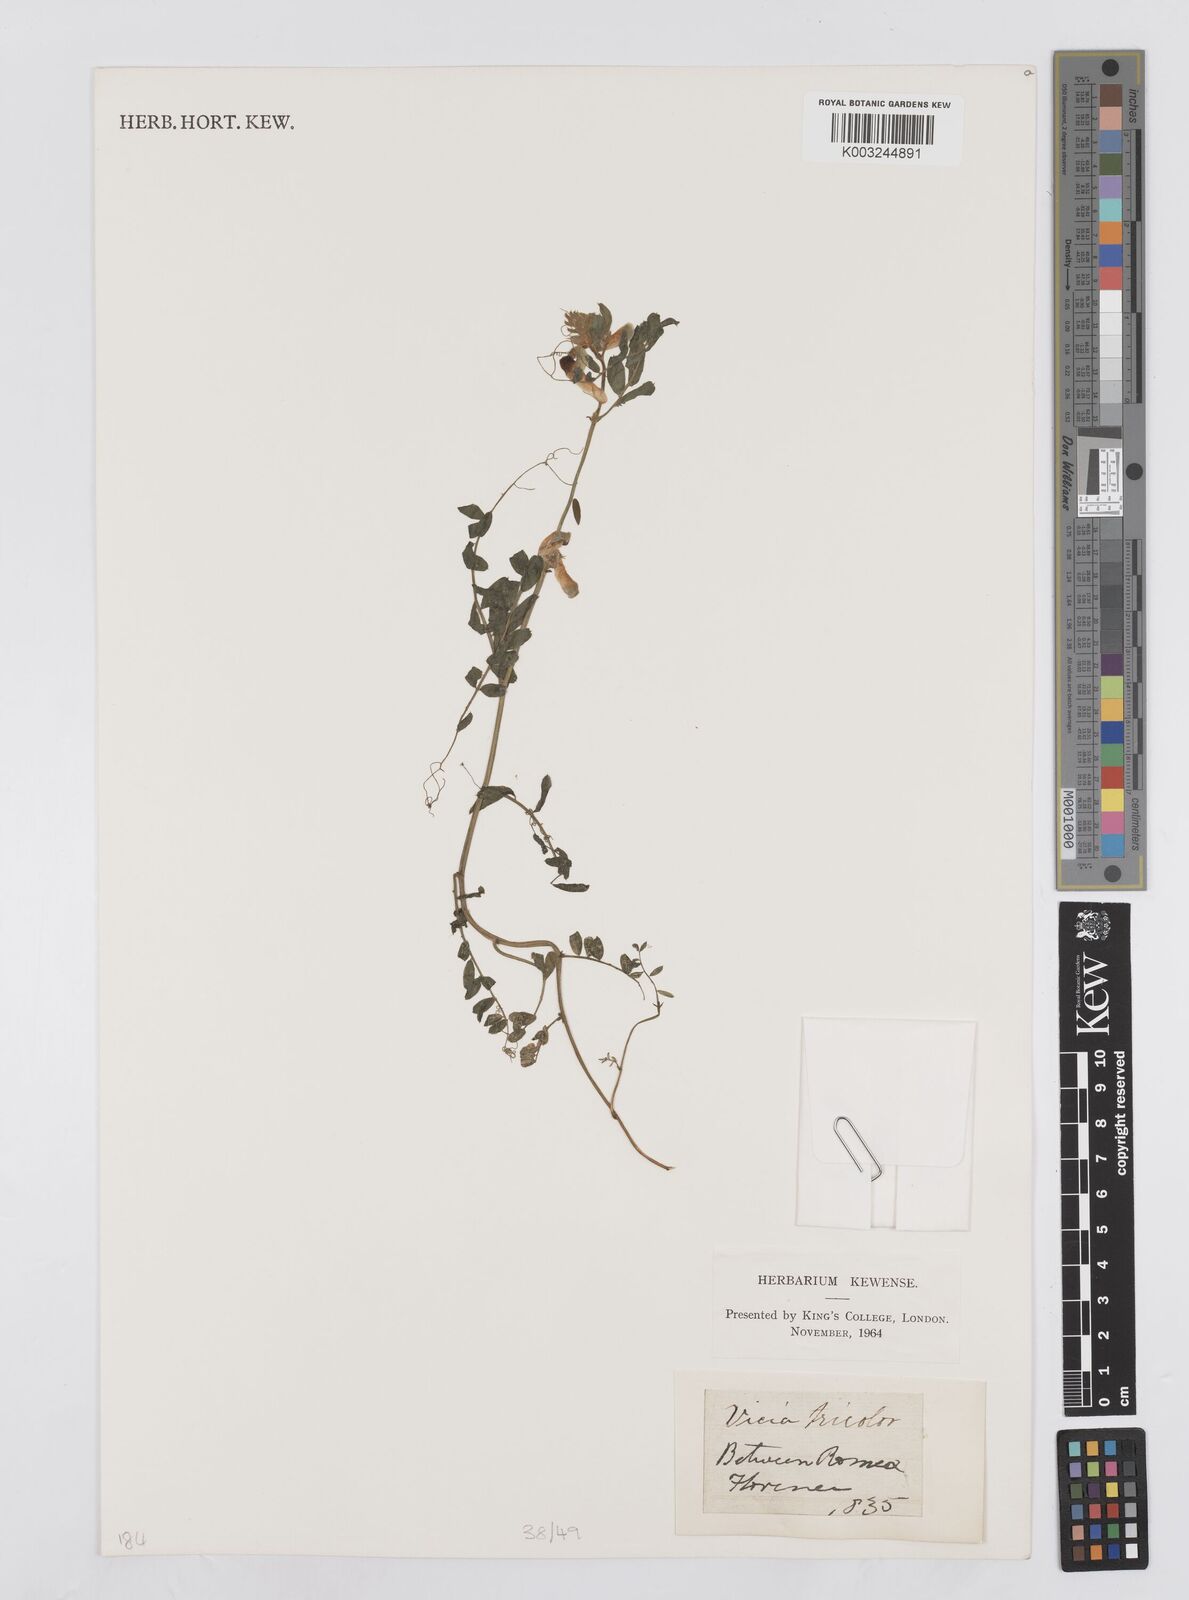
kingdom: Plantae
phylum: Tracheophyta
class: Magnoliopsida
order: Fabales
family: Fabaceae
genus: Vicia
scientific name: Vicia sepium
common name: Bush vetch
